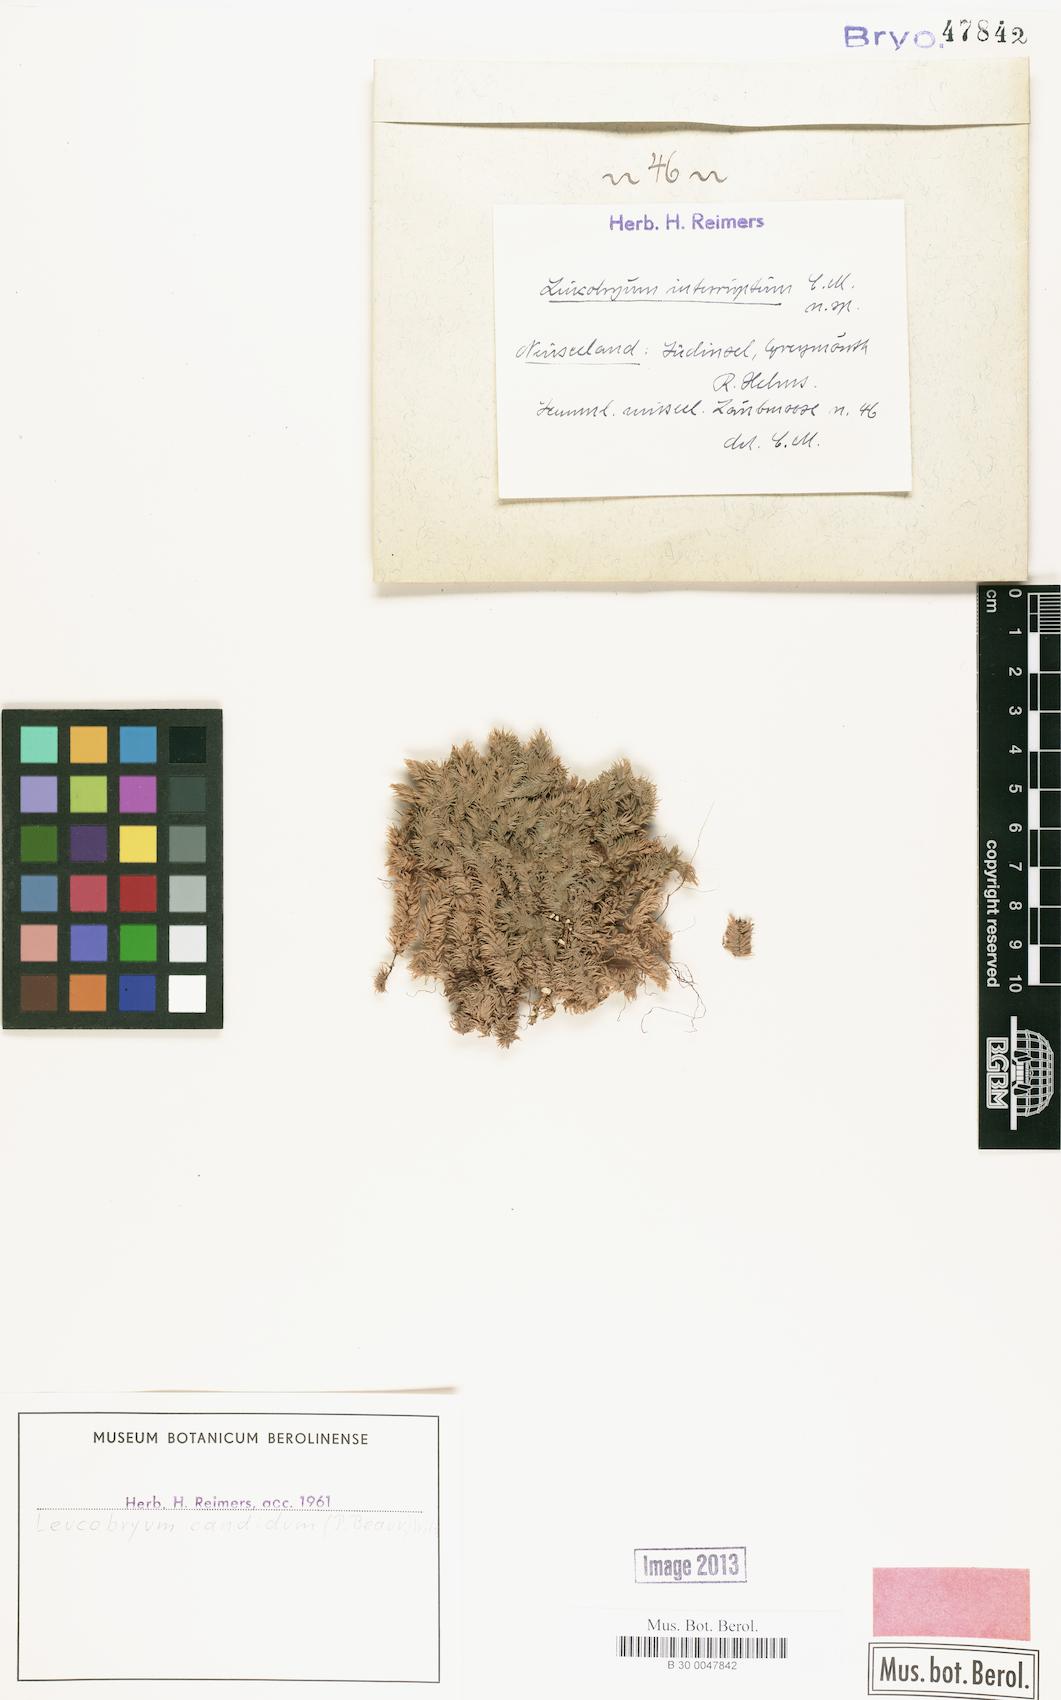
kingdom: Plantae
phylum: Bryophyta
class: Bryopsida
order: Dicranales
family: Leucobryaceae
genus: Leucobryum
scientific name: Leucobryum candidum
